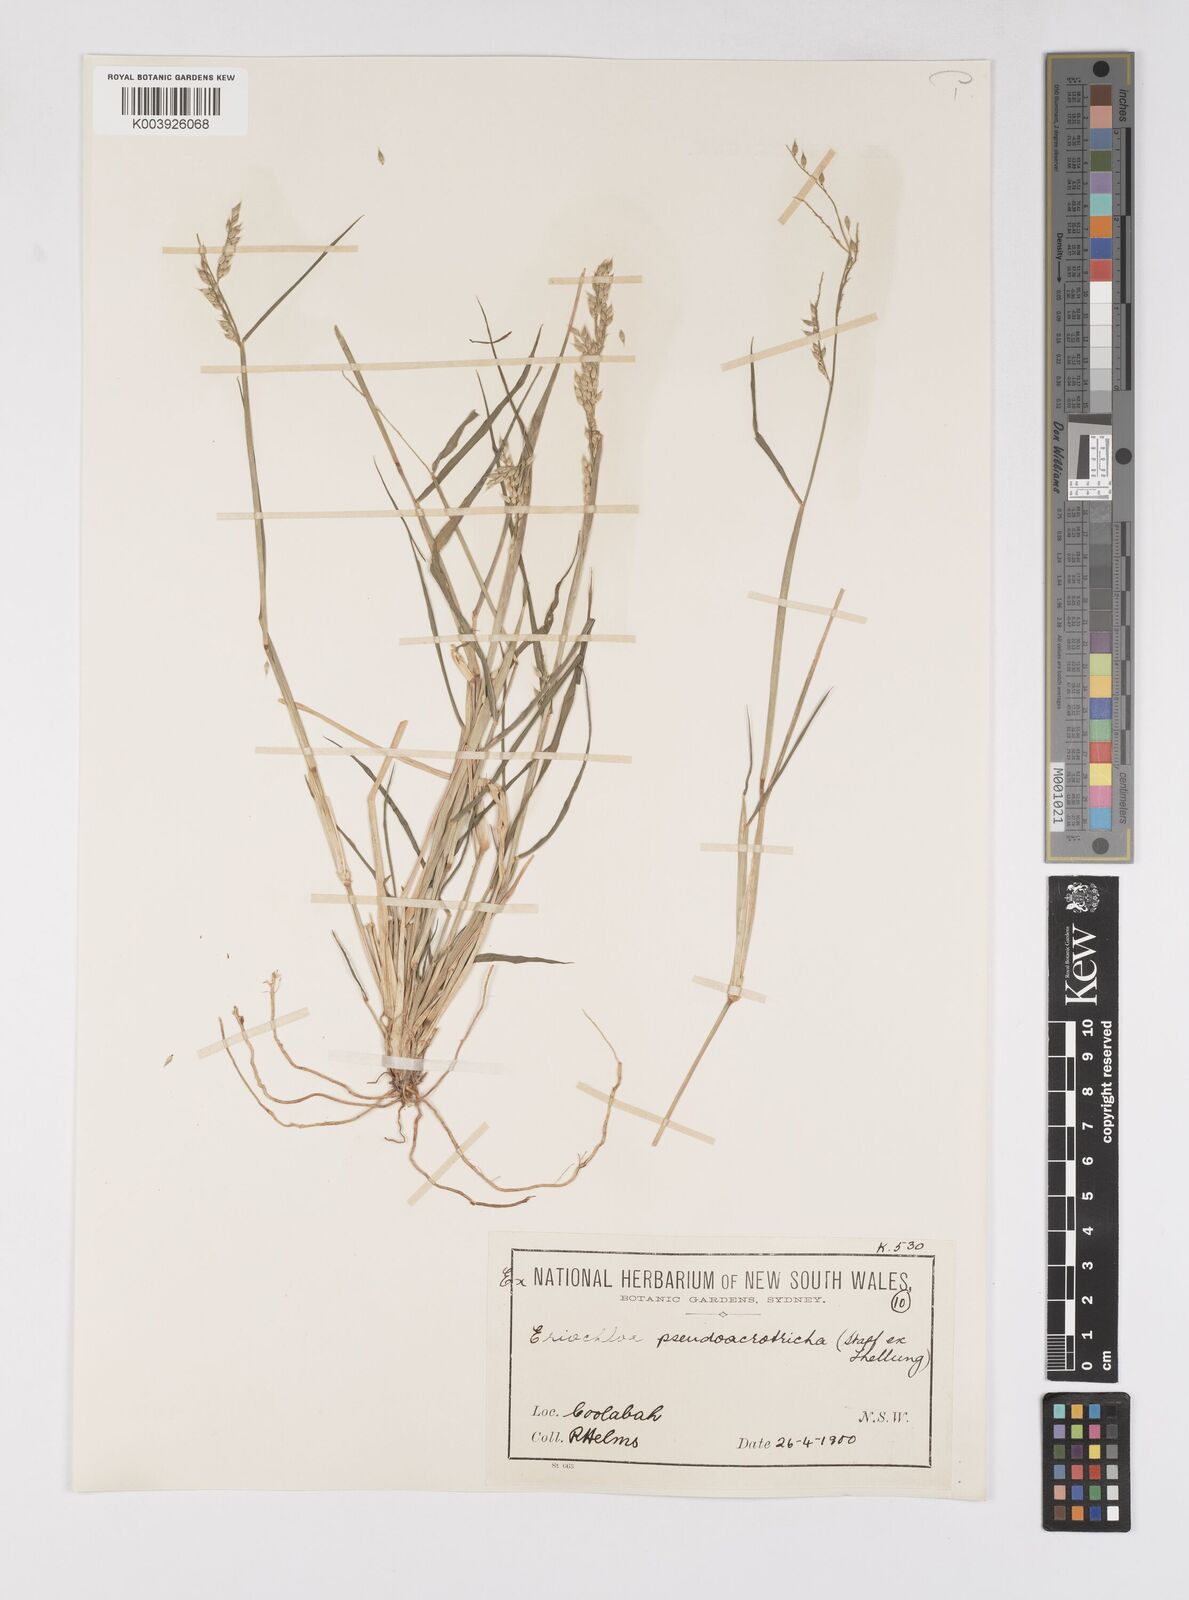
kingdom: Plantae
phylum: Tracheophyta
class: Liliopsida
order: Poales
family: Poaceae
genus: Eriochloa
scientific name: Eriochloa pseudoacrotricha
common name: Perennial cup-grass
